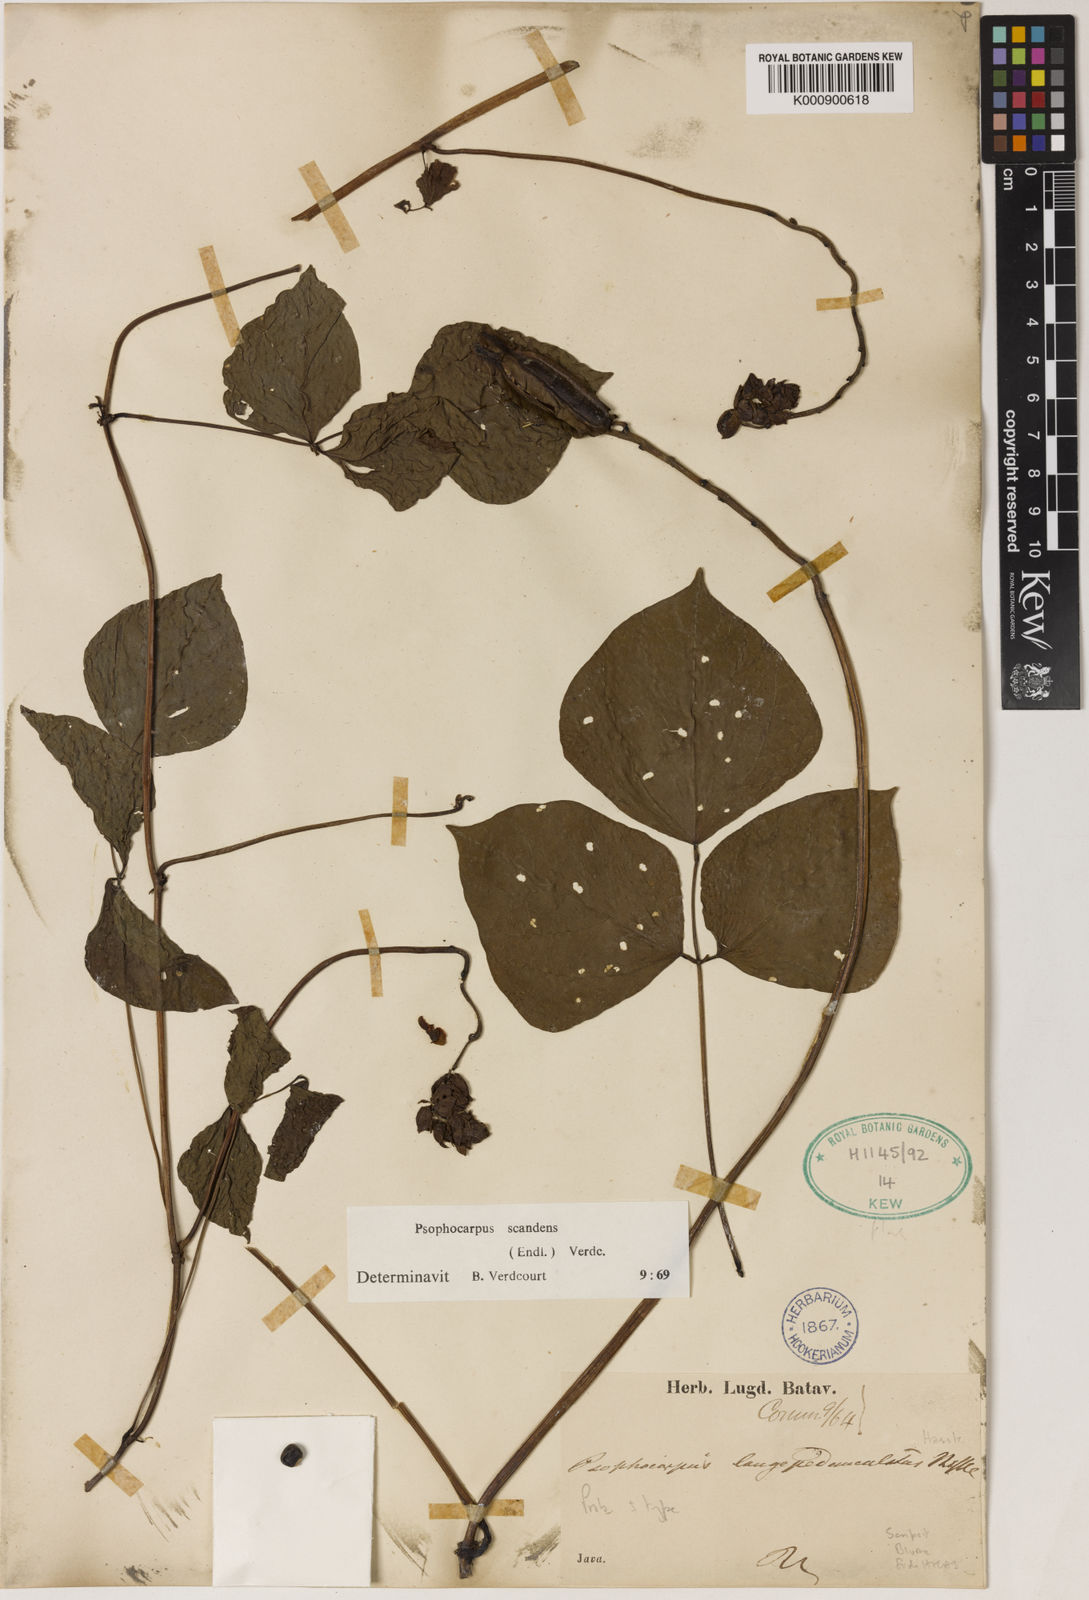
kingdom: Plantae
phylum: Tracheophyta
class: Magnoliopsida
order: Fabales
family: Fabaceae
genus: Psophocarpus
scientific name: Psophocarpus scandens
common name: Tropical african winged-bean
